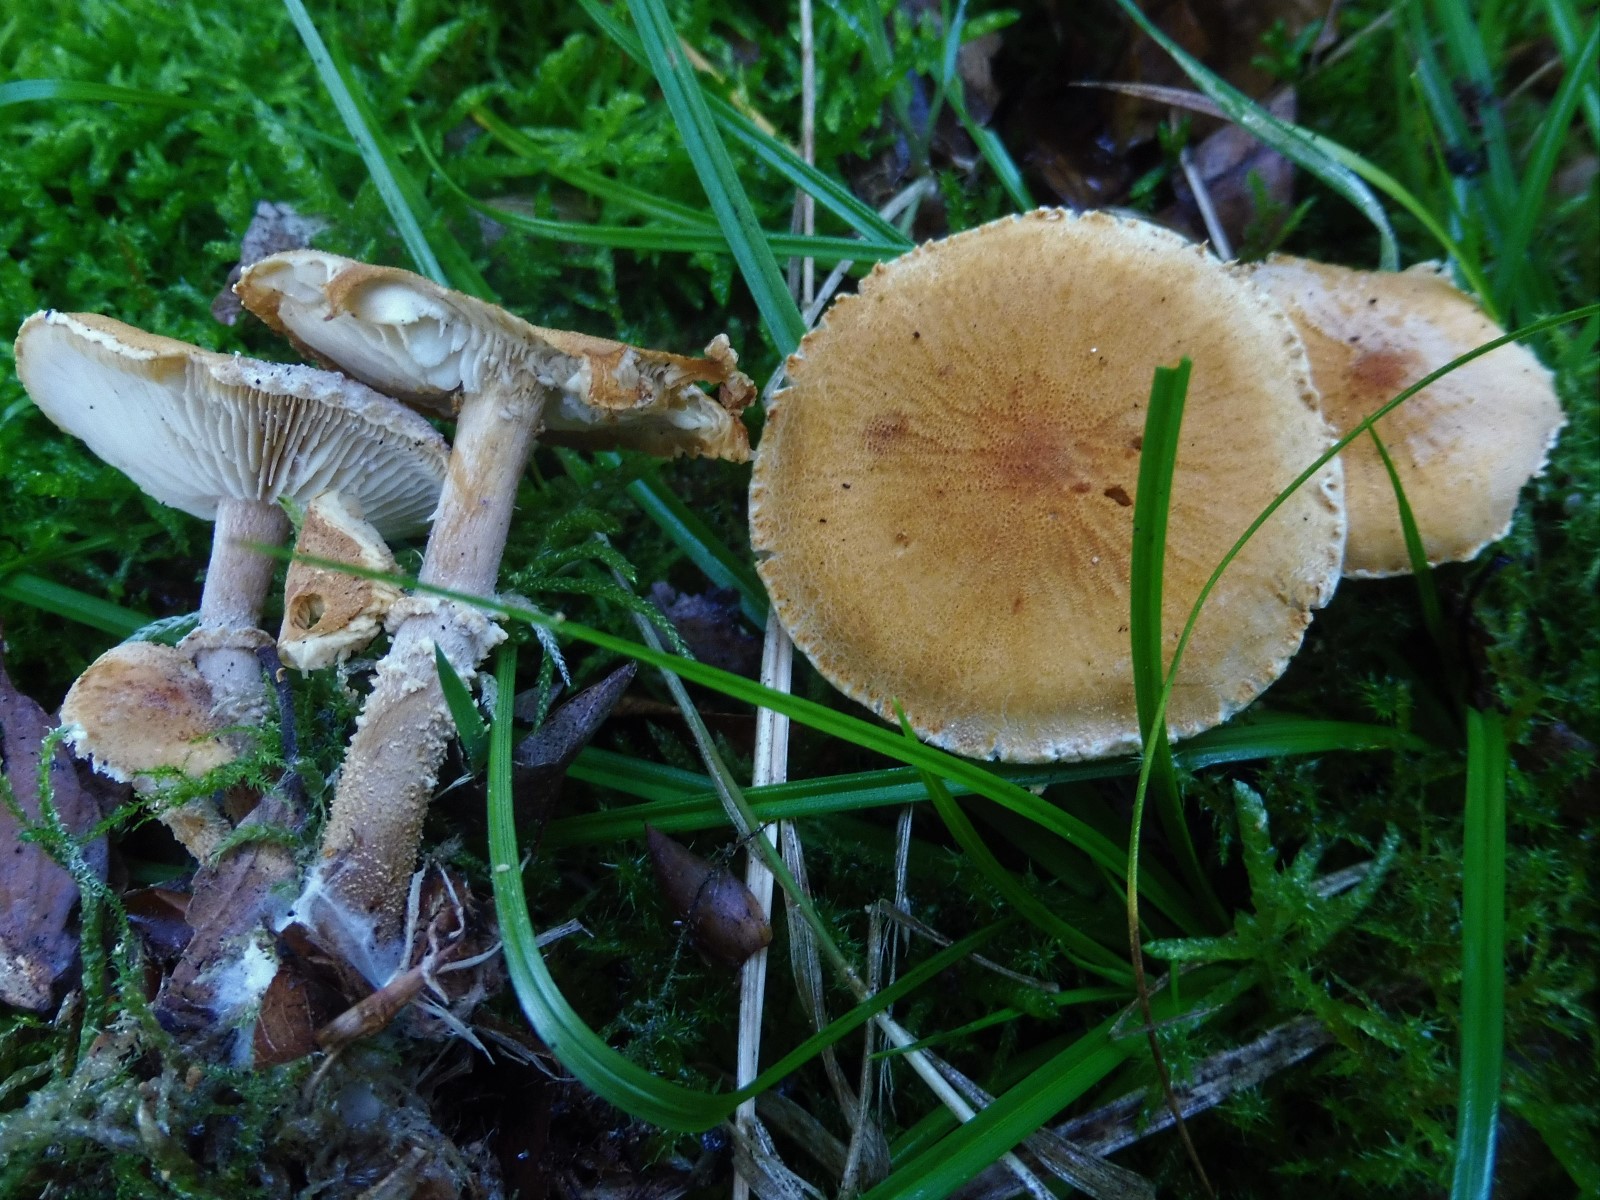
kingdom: Fungi
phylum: Basidiomycota
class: Agaricomycetes
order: Agaricales
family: Tricholomataceae
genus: Cystoderma
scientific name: Cystoderma amianthinum
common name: okkergul grynhat
